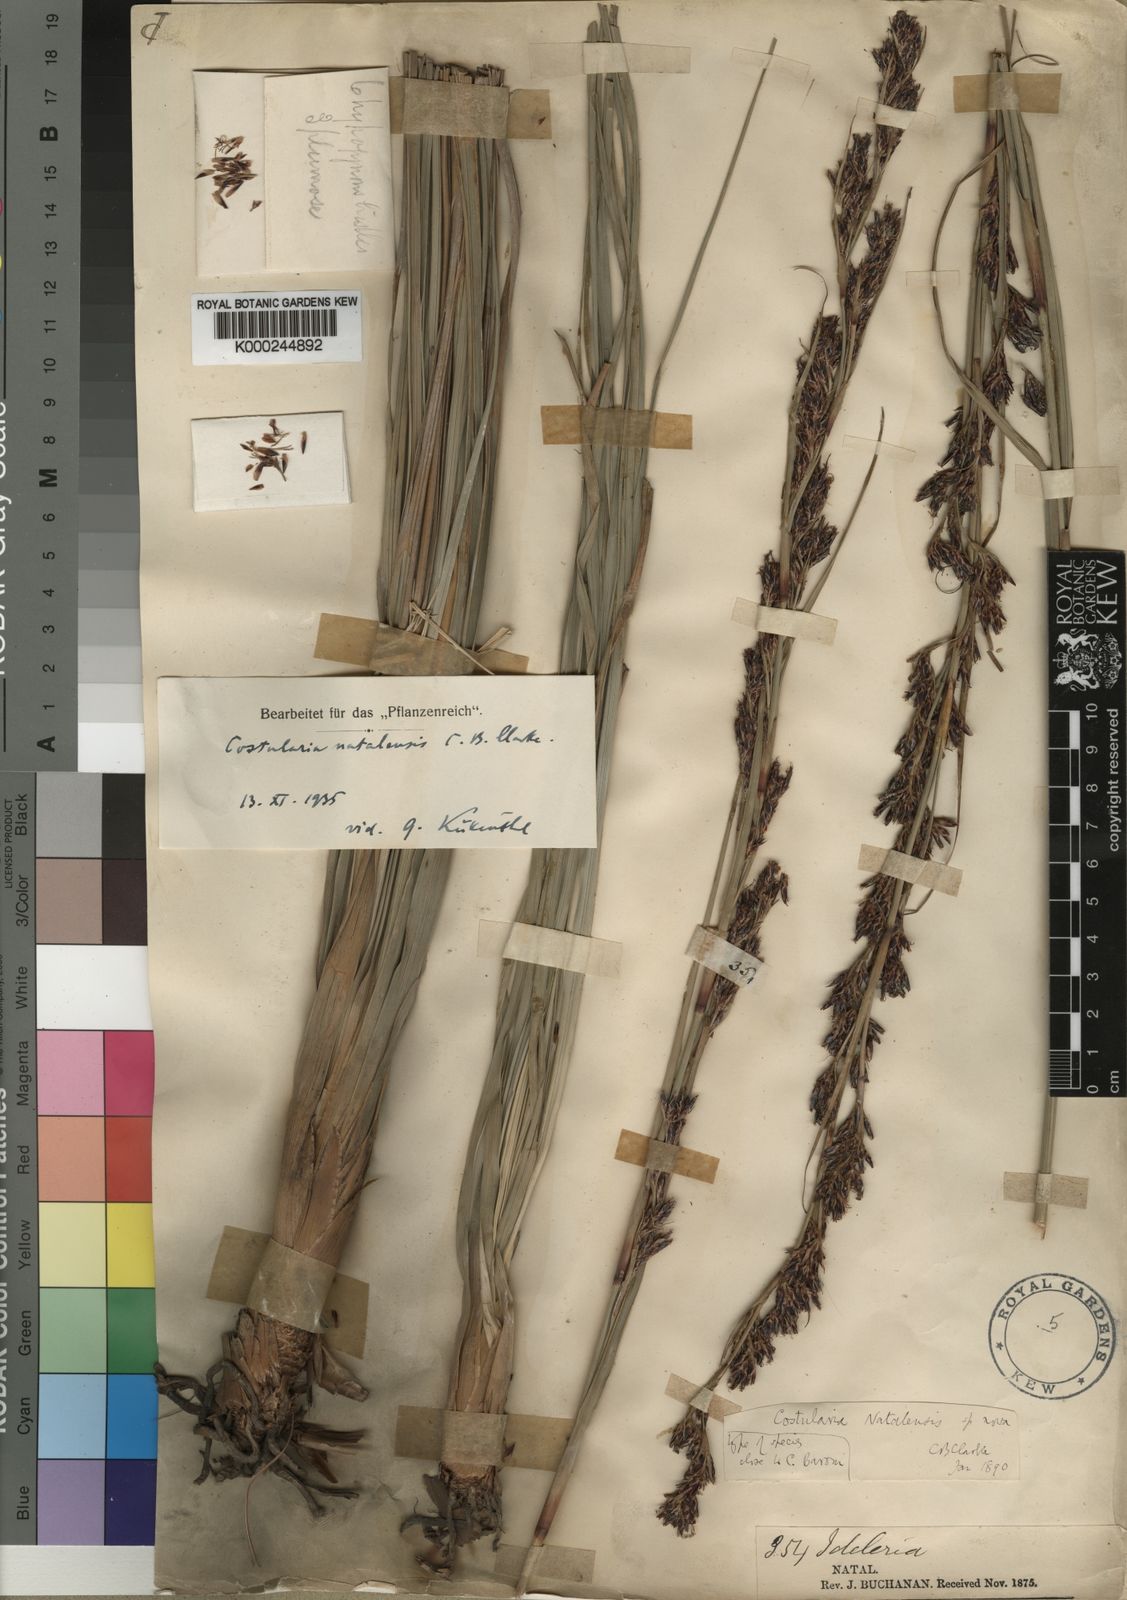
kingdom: Plantae
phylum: Tracheophyta
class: Liliopsida
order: Poales
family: Cyperaceae
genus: Costularia
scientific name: Costularia natalensis
